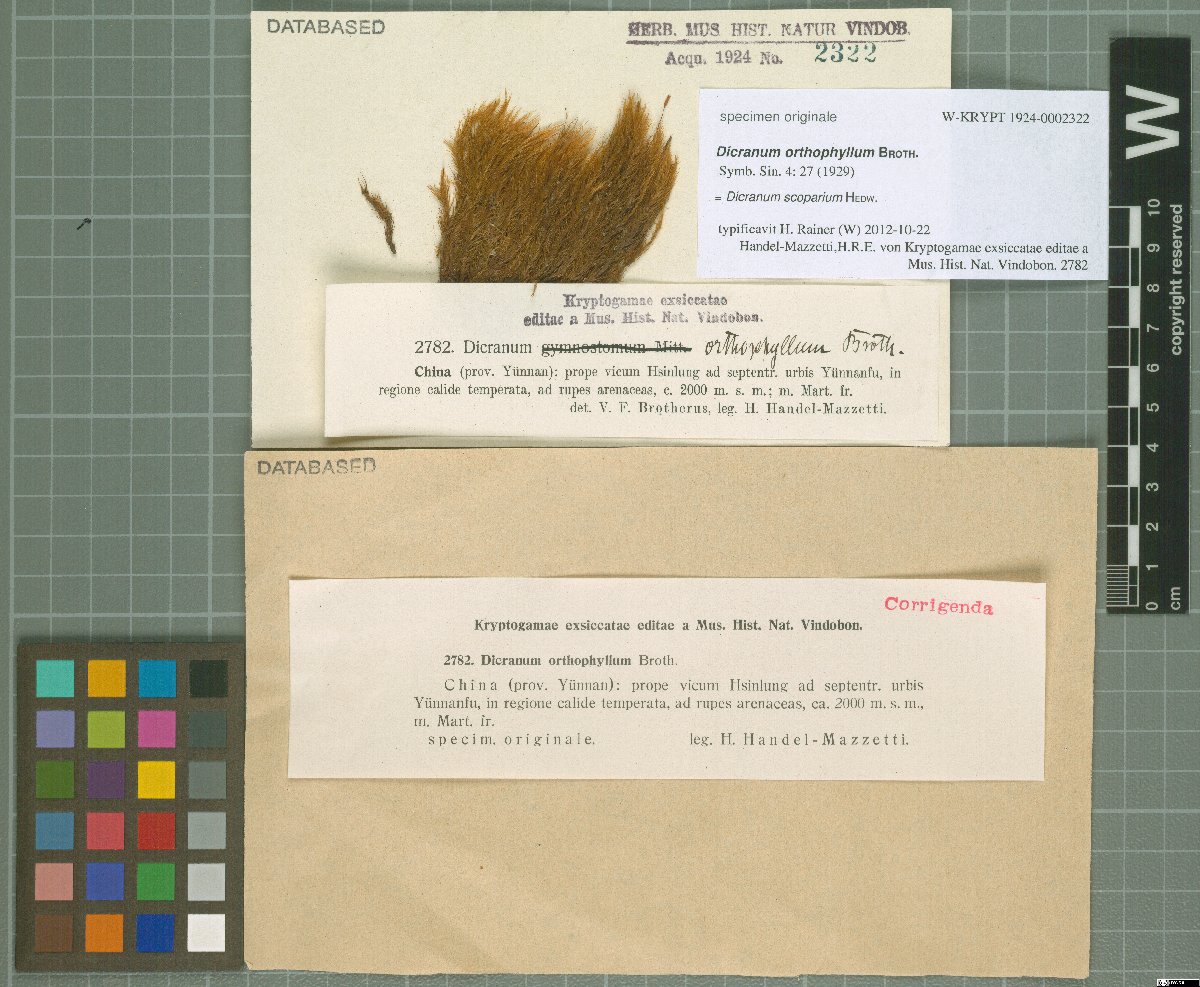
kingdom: Plantae
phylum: Bryophyta
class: Bryopsida
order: Dicranales
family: Dicranaceae
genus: Dicranum
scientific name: Dicranum scoparium
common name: Broom fork-moss
